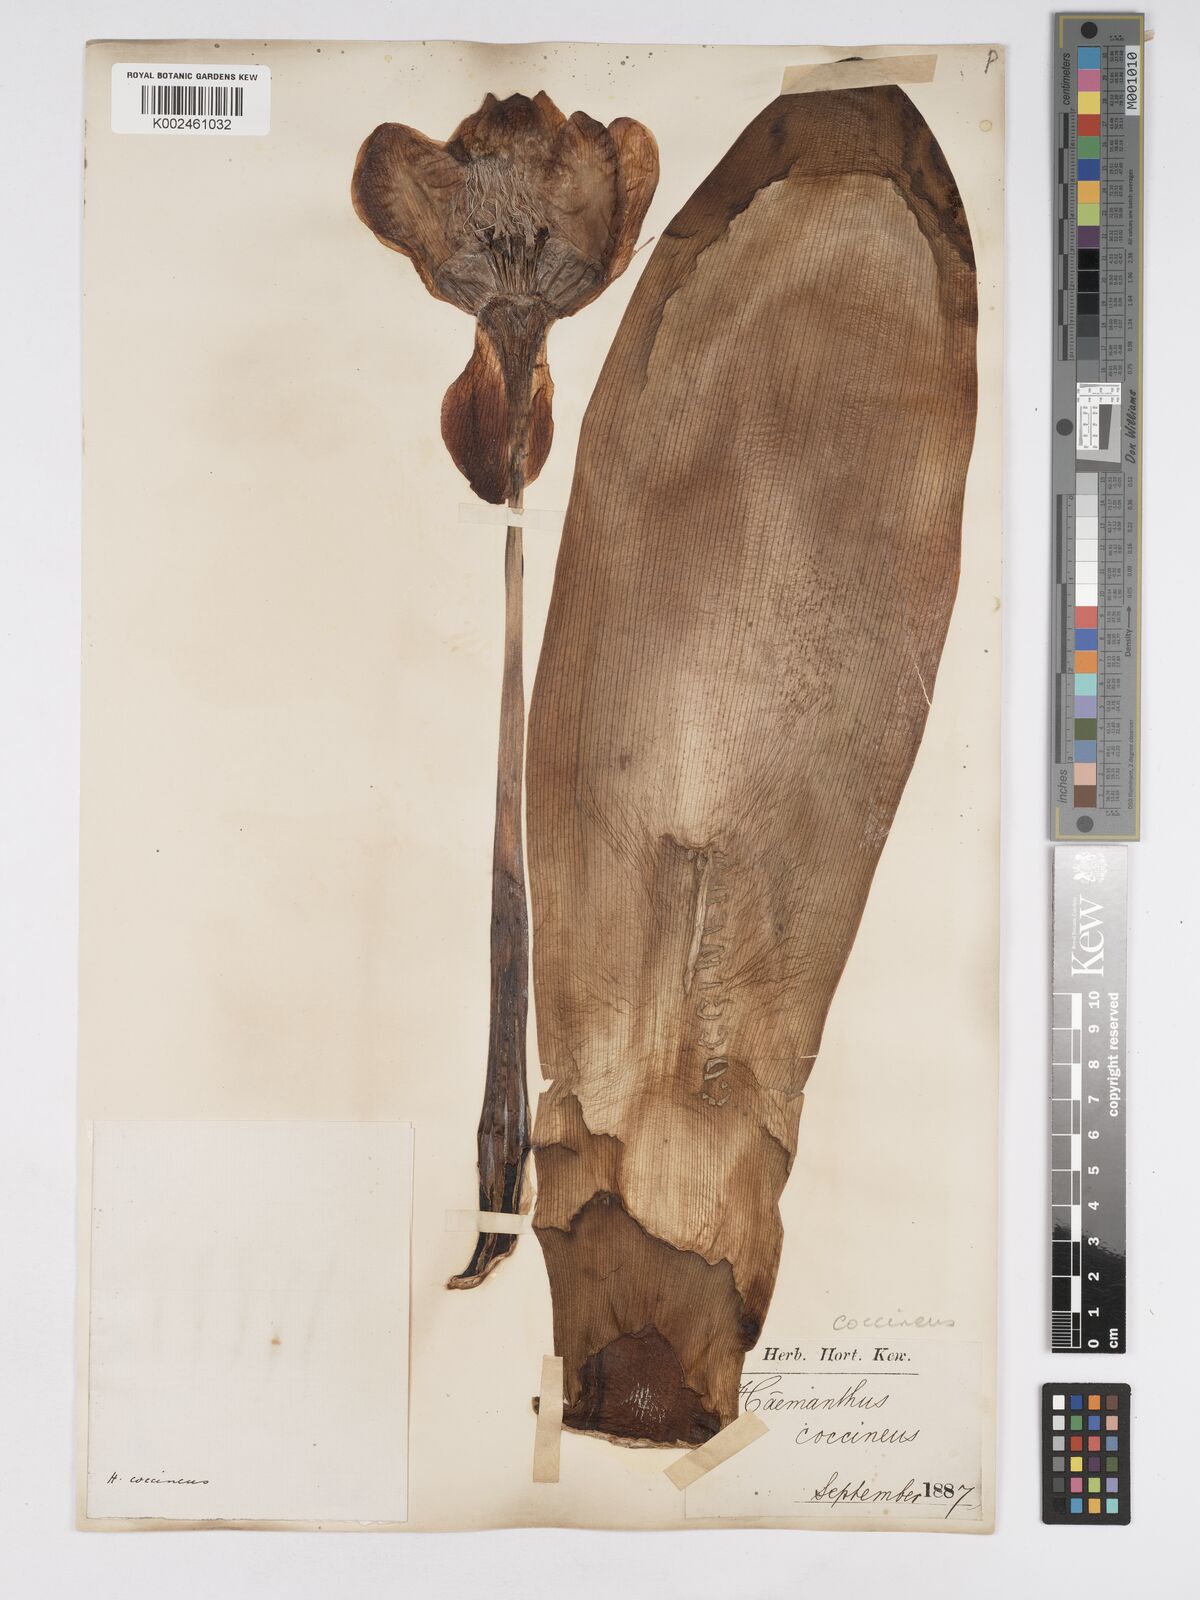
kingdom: Plantae
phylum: Tracheophyta
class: Liliopsida
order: Asparagales
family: Amaryllidaceae
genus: Haemanthus
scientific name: Haemanthus coccineus
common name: Cape-tulip
